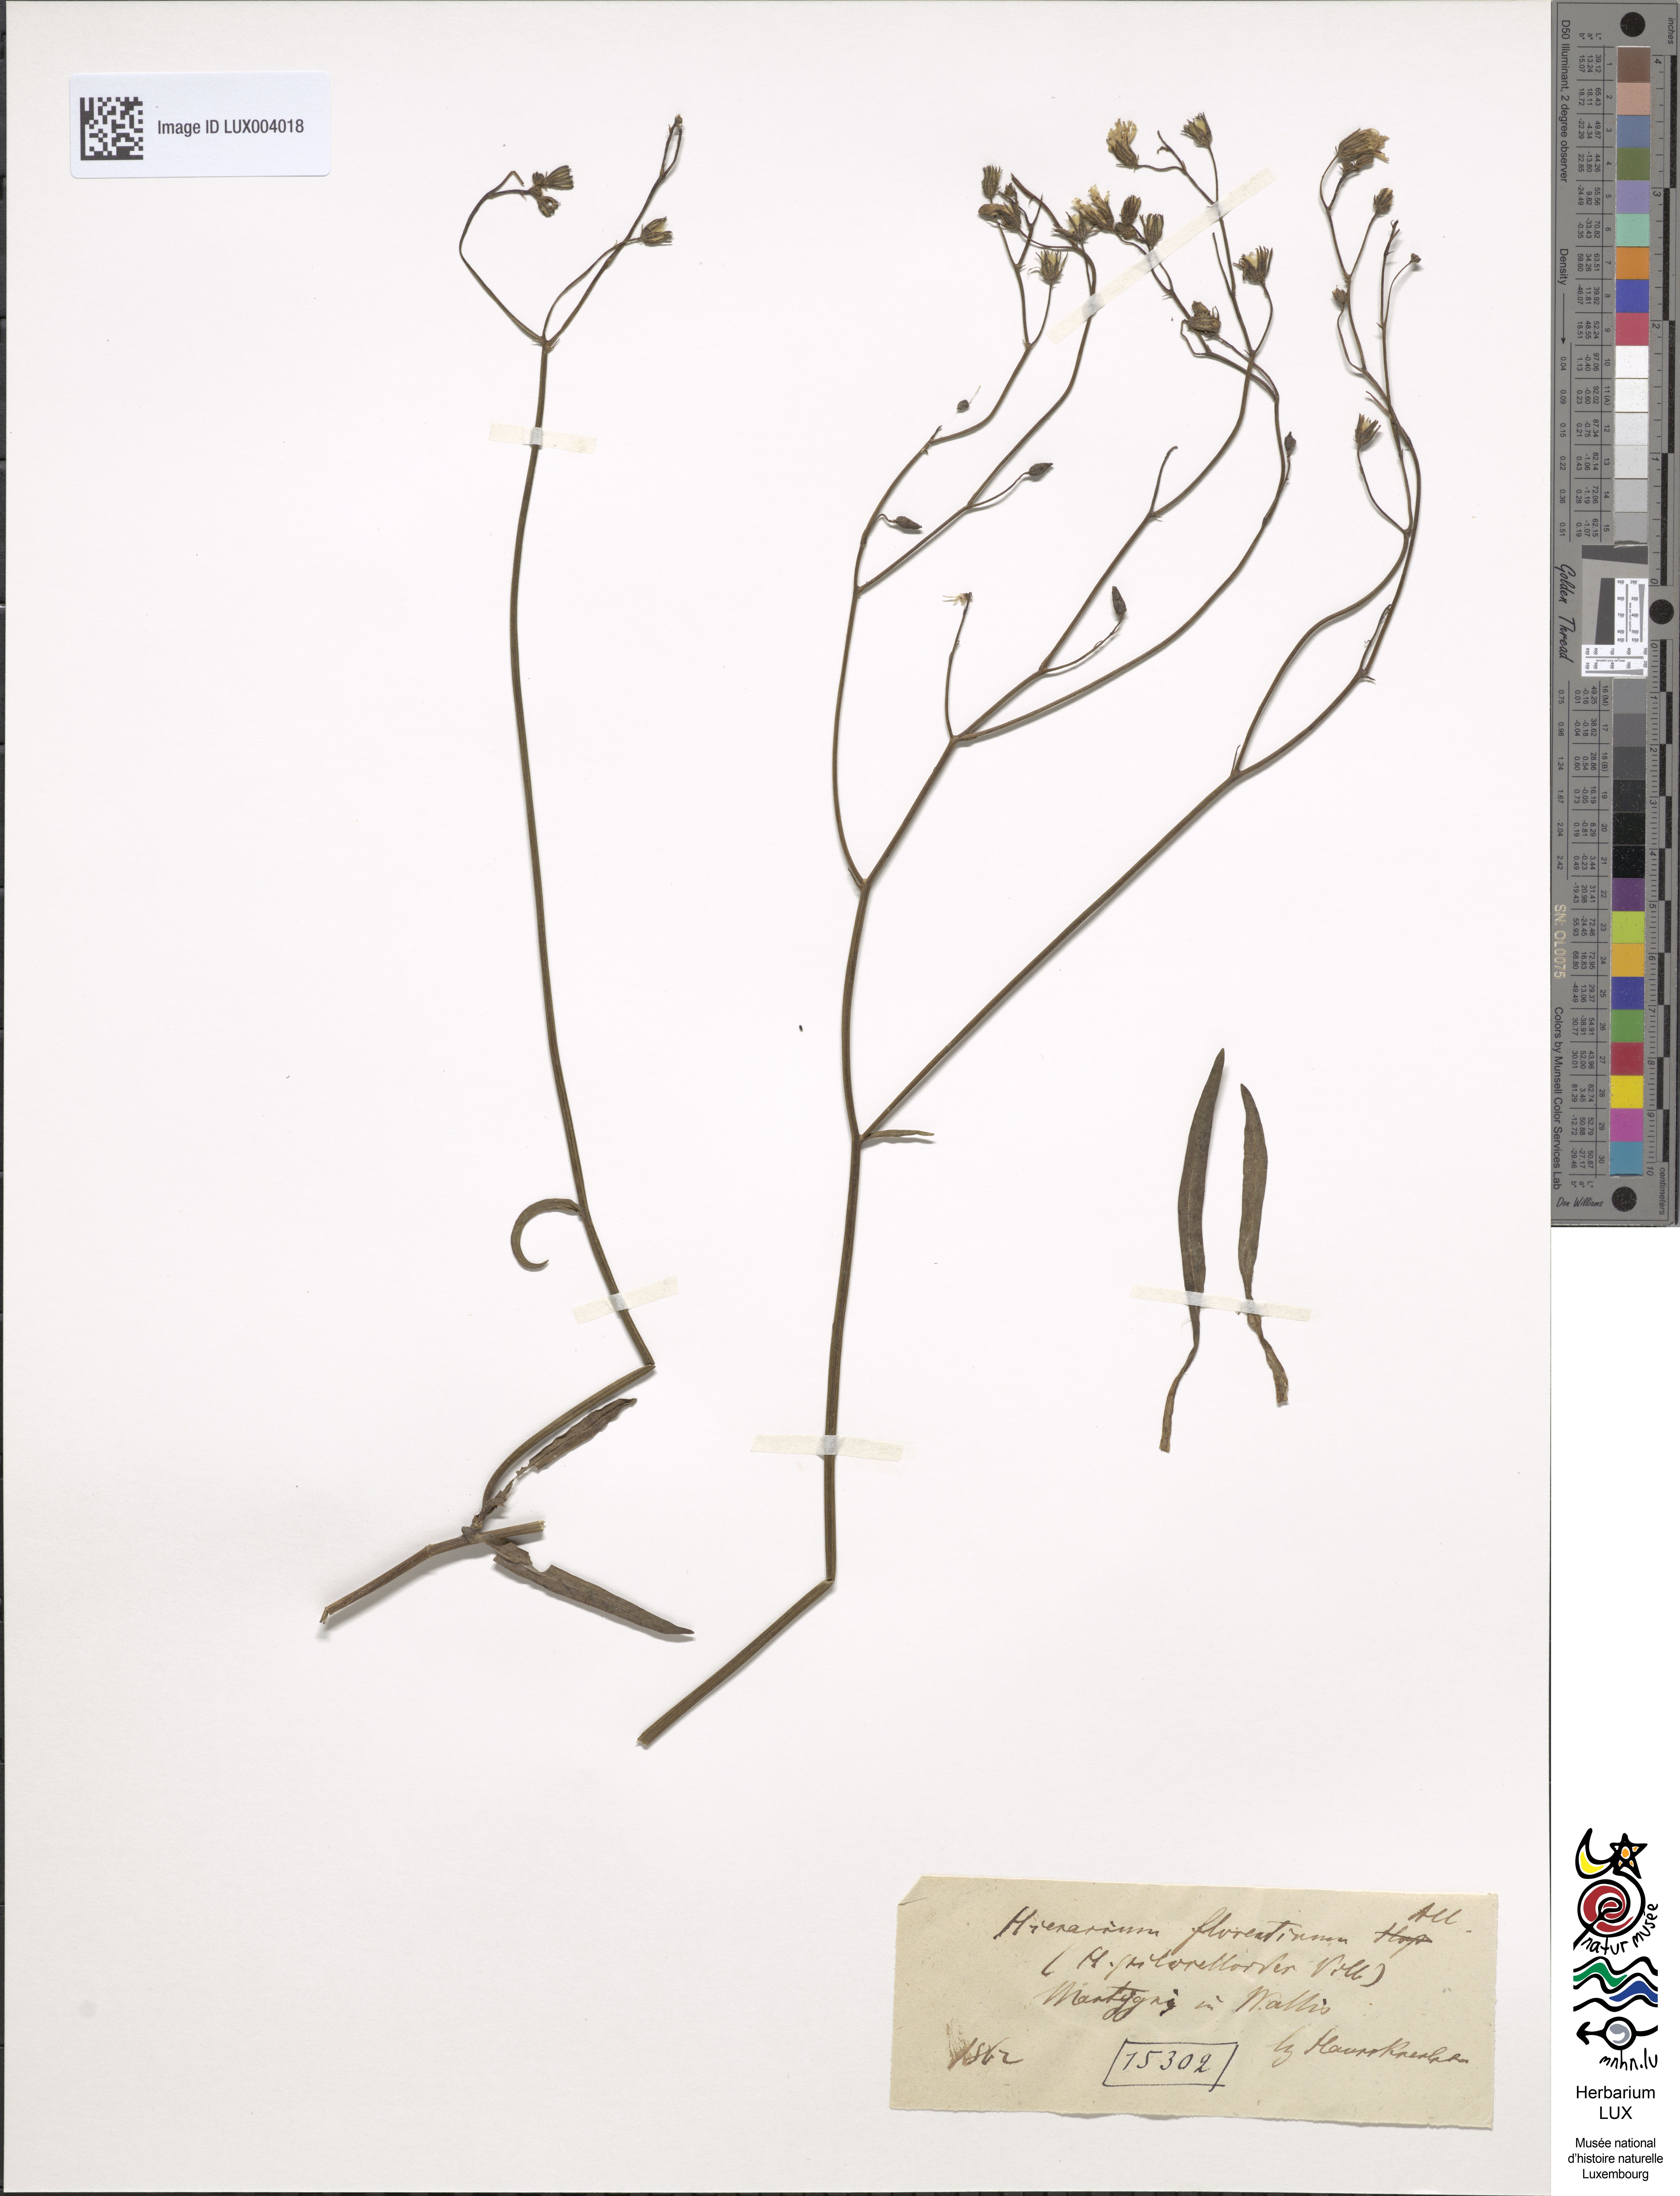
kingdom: Plantae
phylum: Tracheophyta
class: Magnoliopsida
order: Asterales
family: Asteraceae
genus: Pilosella
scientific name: Pilosella piloselloides
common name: Glaucous king-devil
